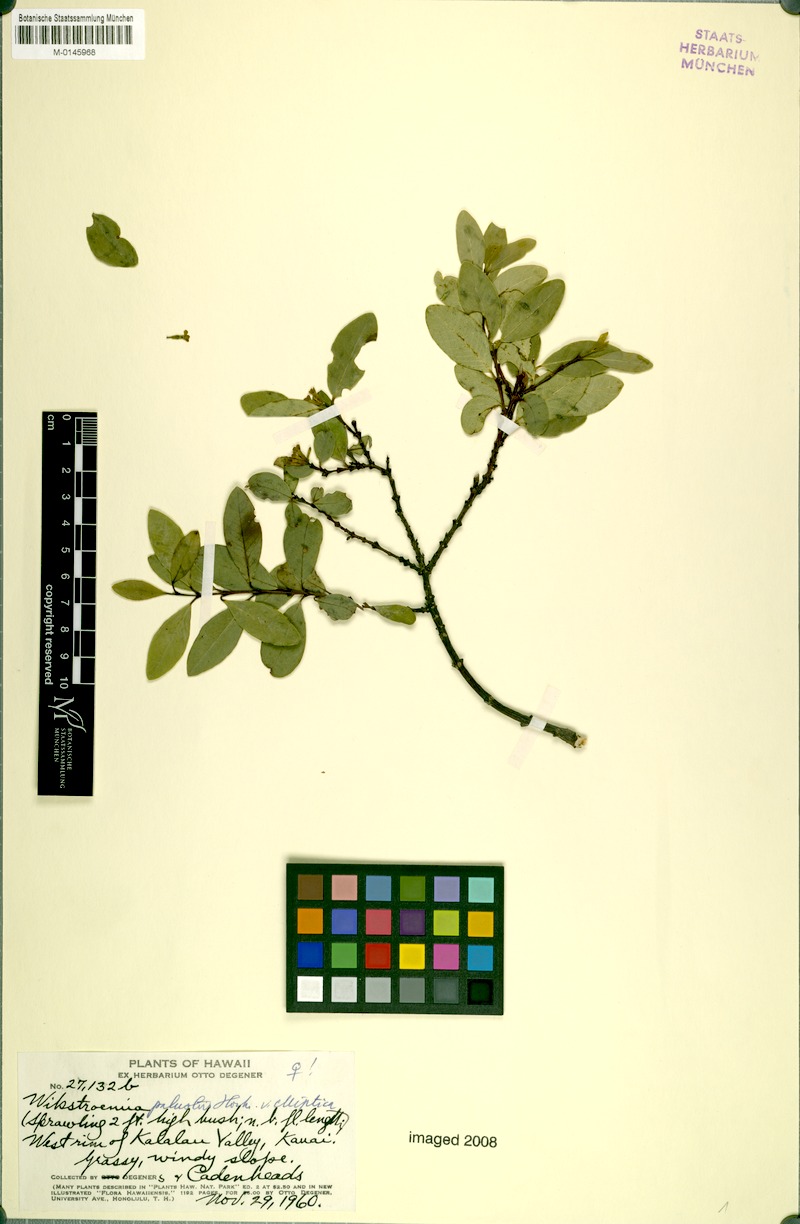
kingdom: Plantae
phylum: Tracheophyta
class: Magnoliopsida
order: Malvales
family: Thymelaeaceae
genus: Wikstroemia
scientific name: Wikstroemia oahuensis
